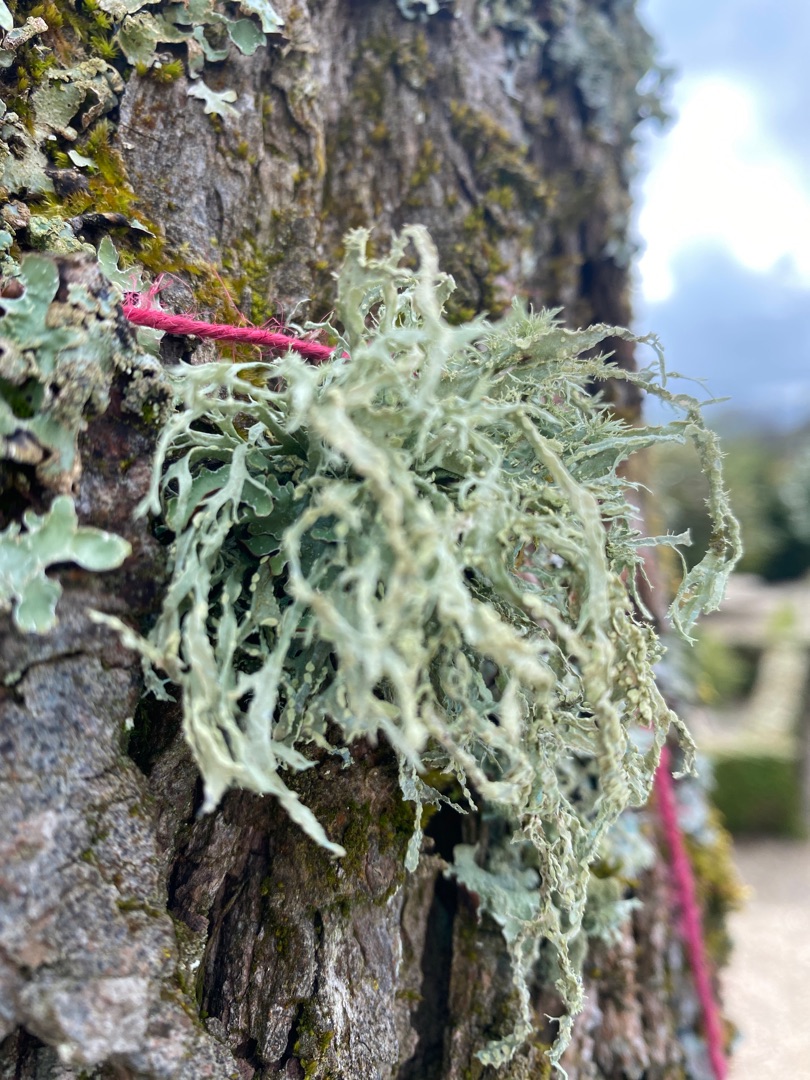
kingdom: Fungi
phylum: Ascomycota
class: Lecanoromycetes
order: Lecanorales
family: Ramalinaceae
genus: Ramalina
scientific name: Ramalina farinacea
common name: Melet grenlav
